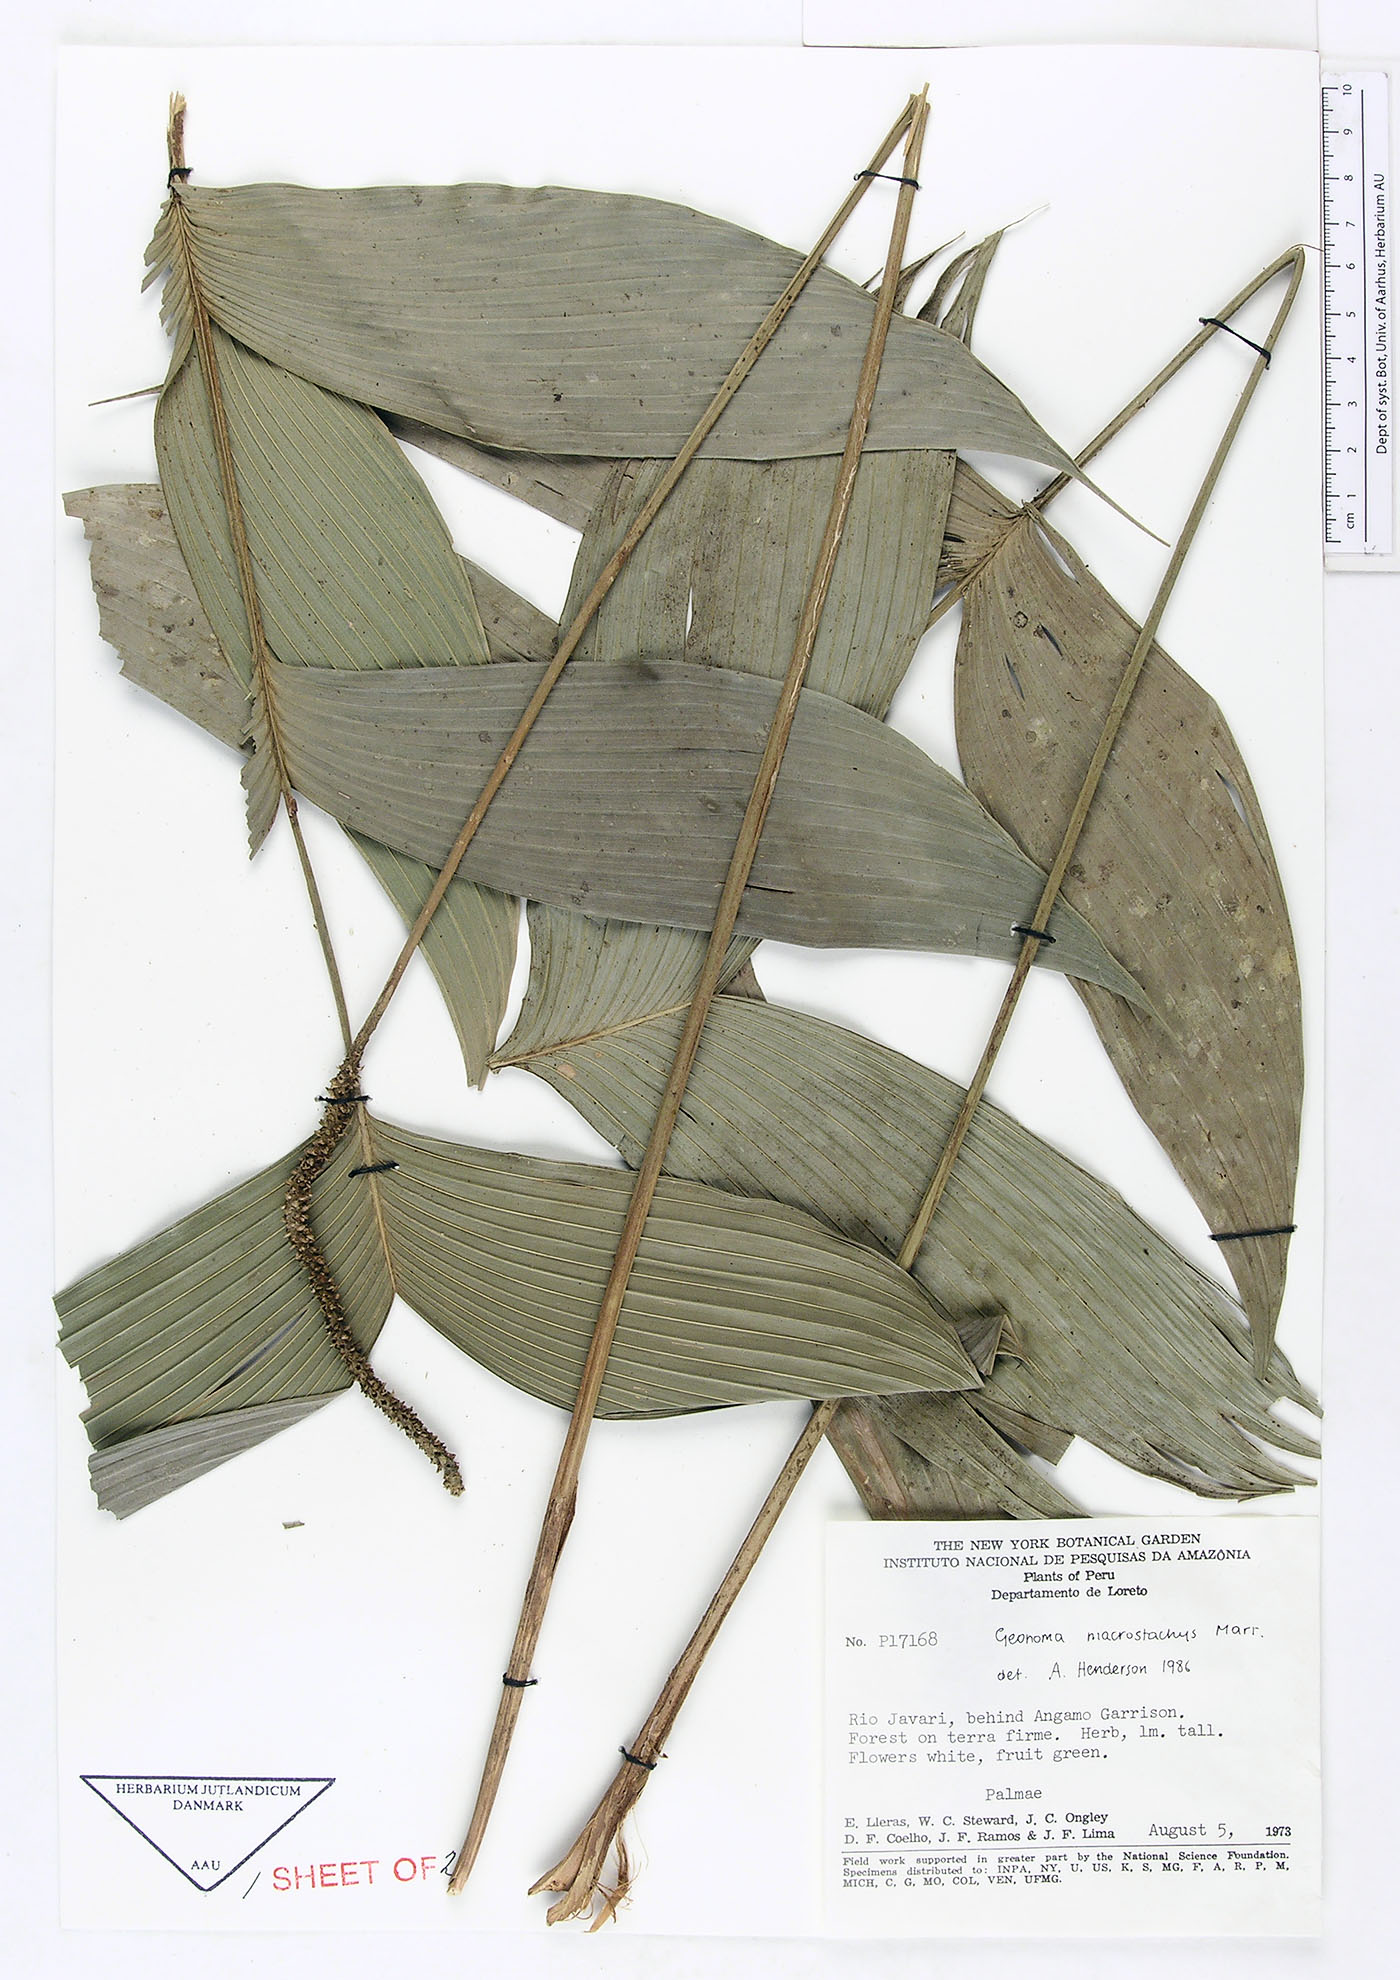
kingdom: Plantae
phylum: Tracheophyta
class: Liliopsida
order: Arecales
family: Arecaceae
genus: Geonoma
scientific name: Geonoma macrostachys
